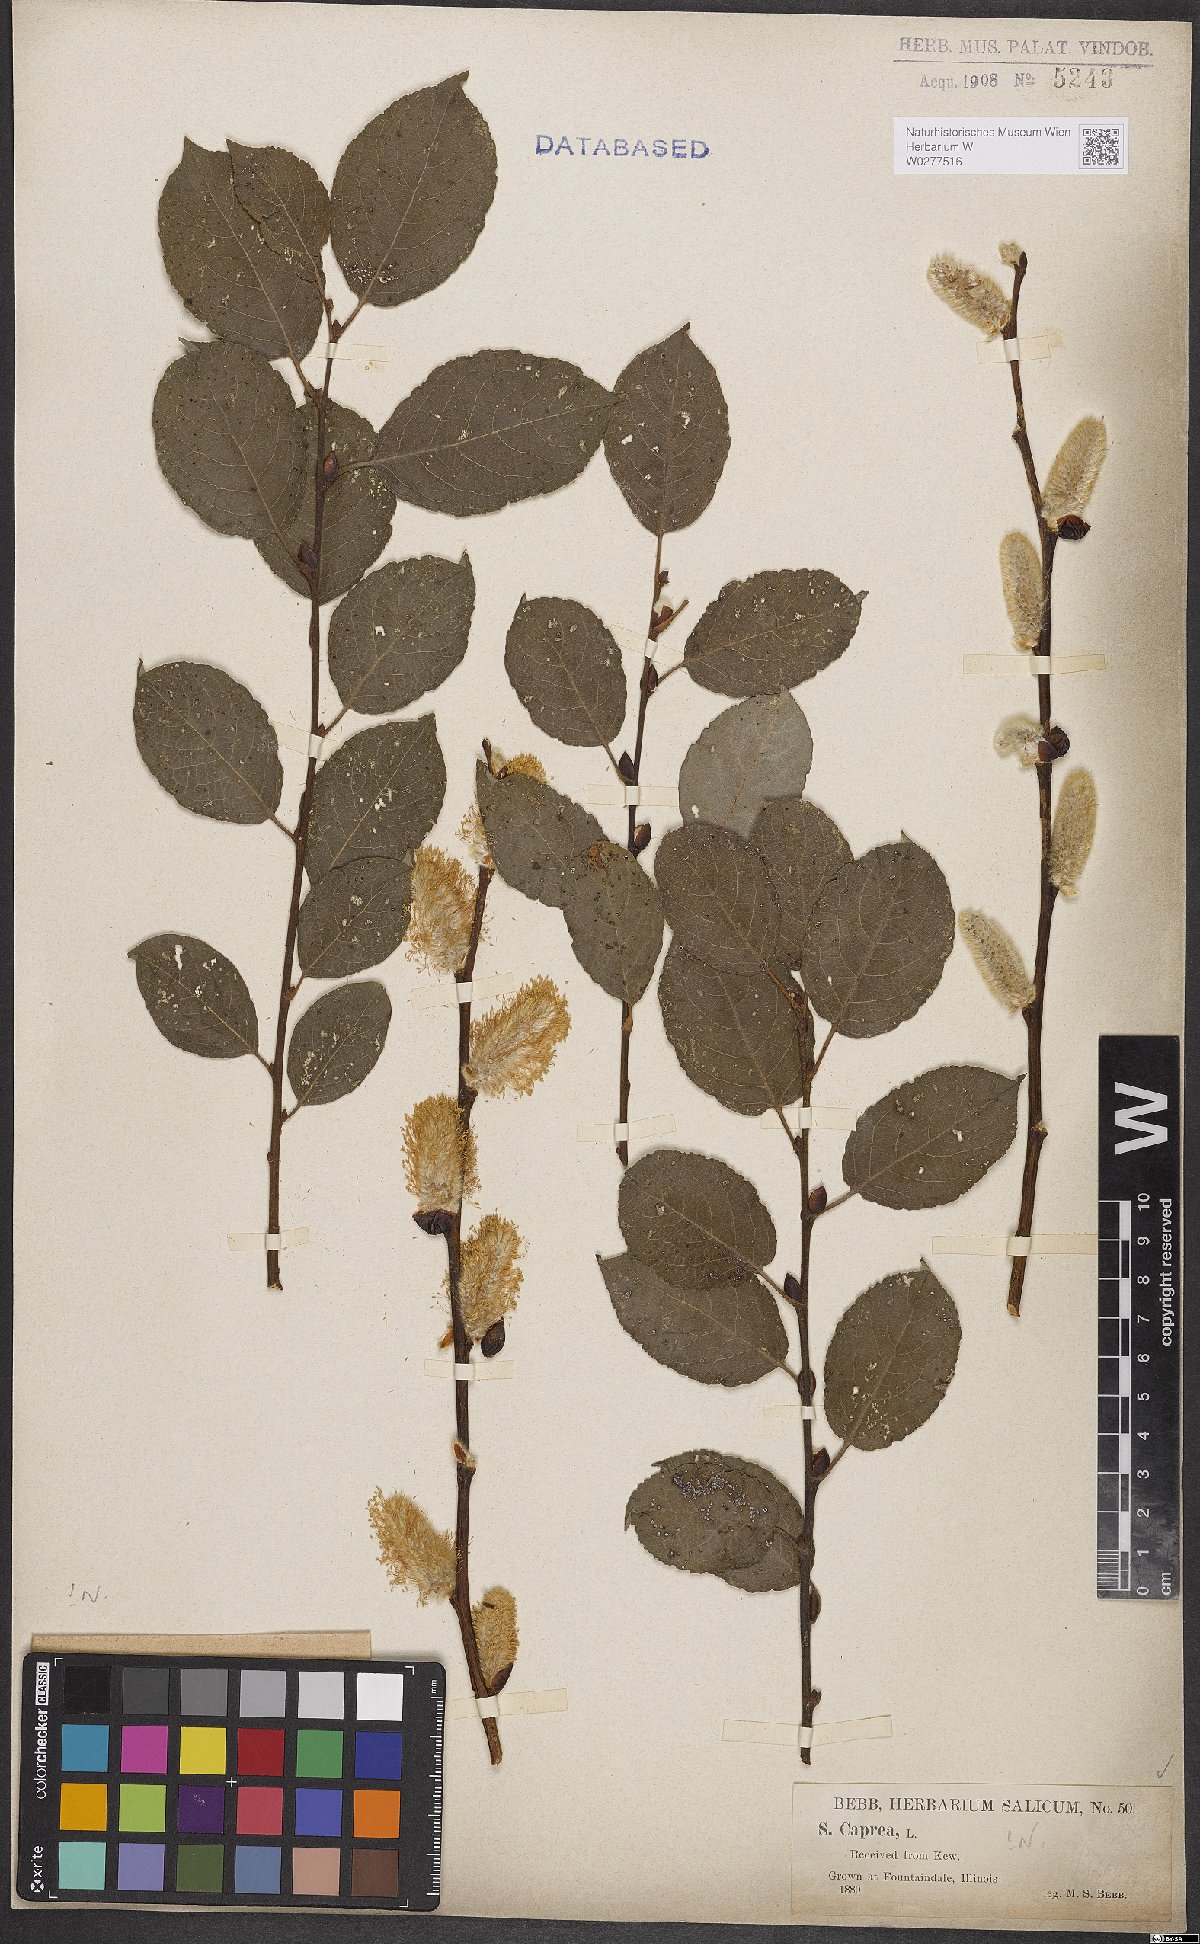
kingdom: Plantae
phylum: Tracheophyta
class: Magnoliopsida
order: Malpighiales
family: Salicaceae
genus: Salix
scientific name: Salix caprea
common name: Goat willow
